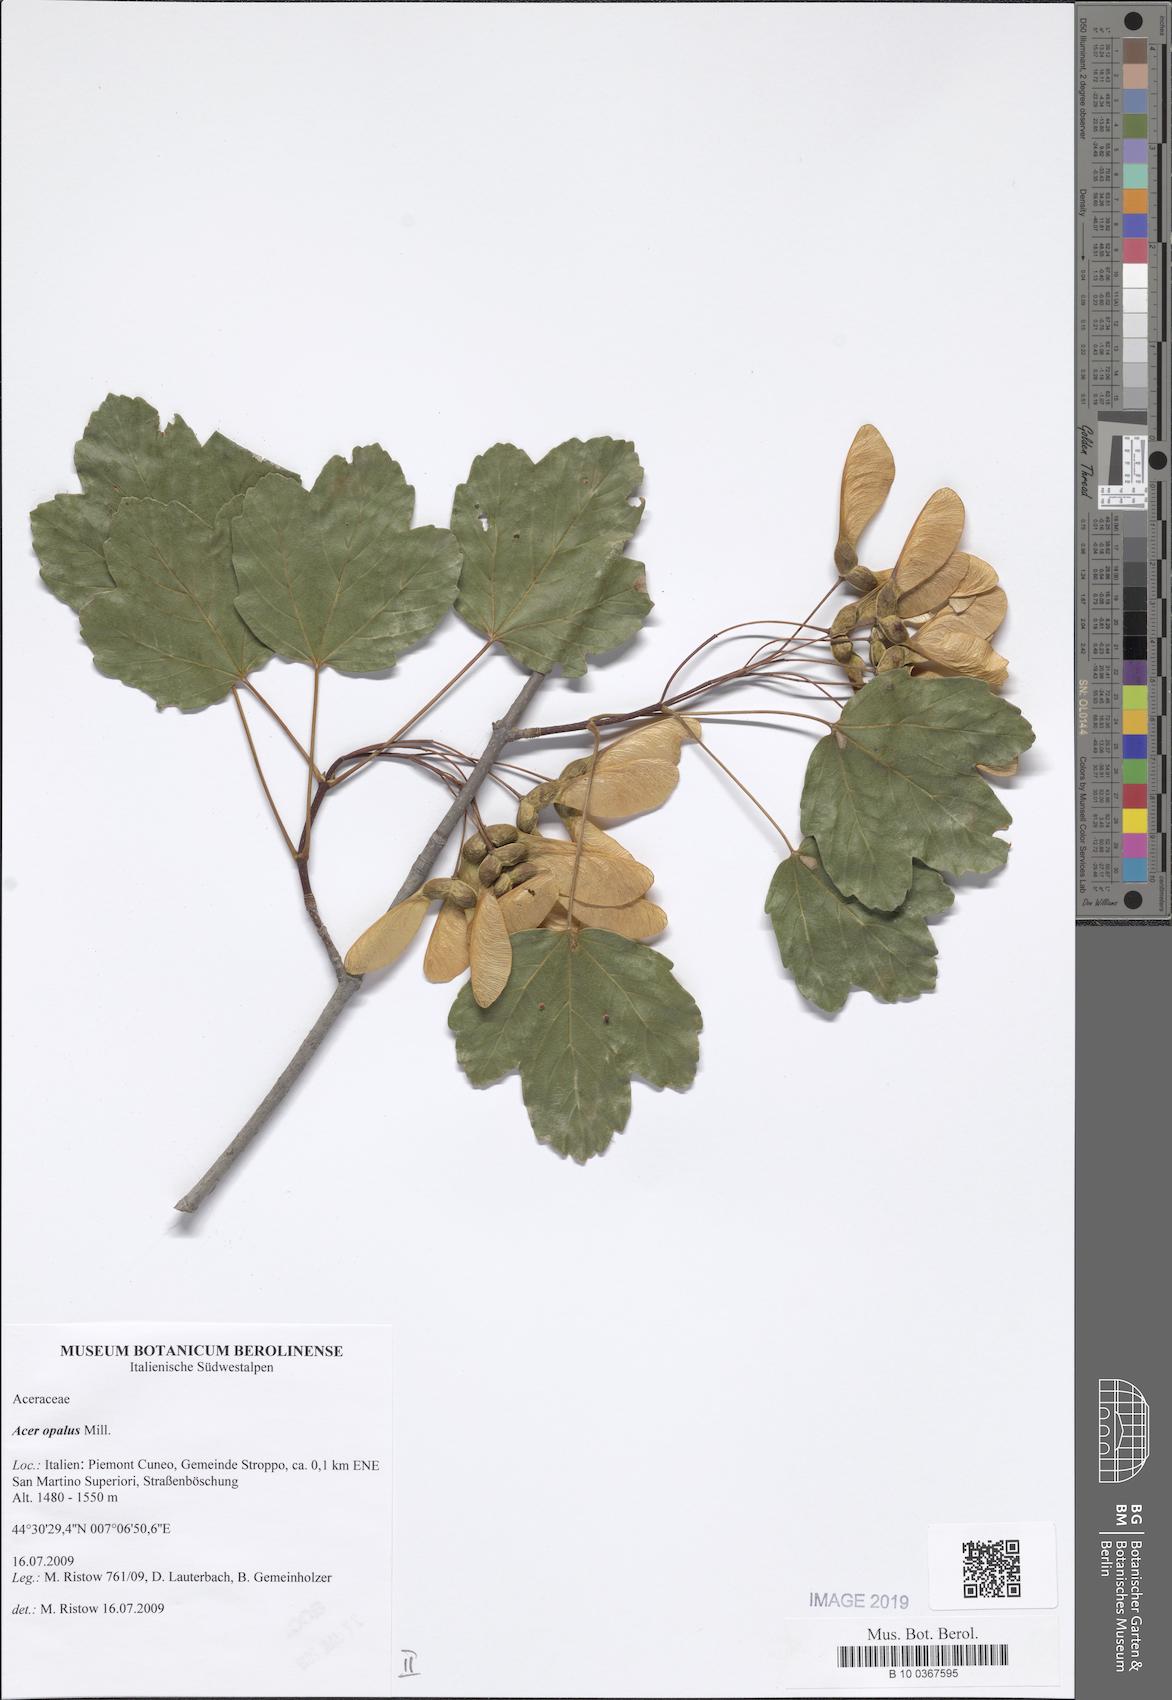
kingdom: Plantae
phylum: Tracheophyta
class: Magnoliopsida
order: Sapindales
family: Sapindaceae
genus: Acer
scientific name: Acer opalus
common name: Italian maple
